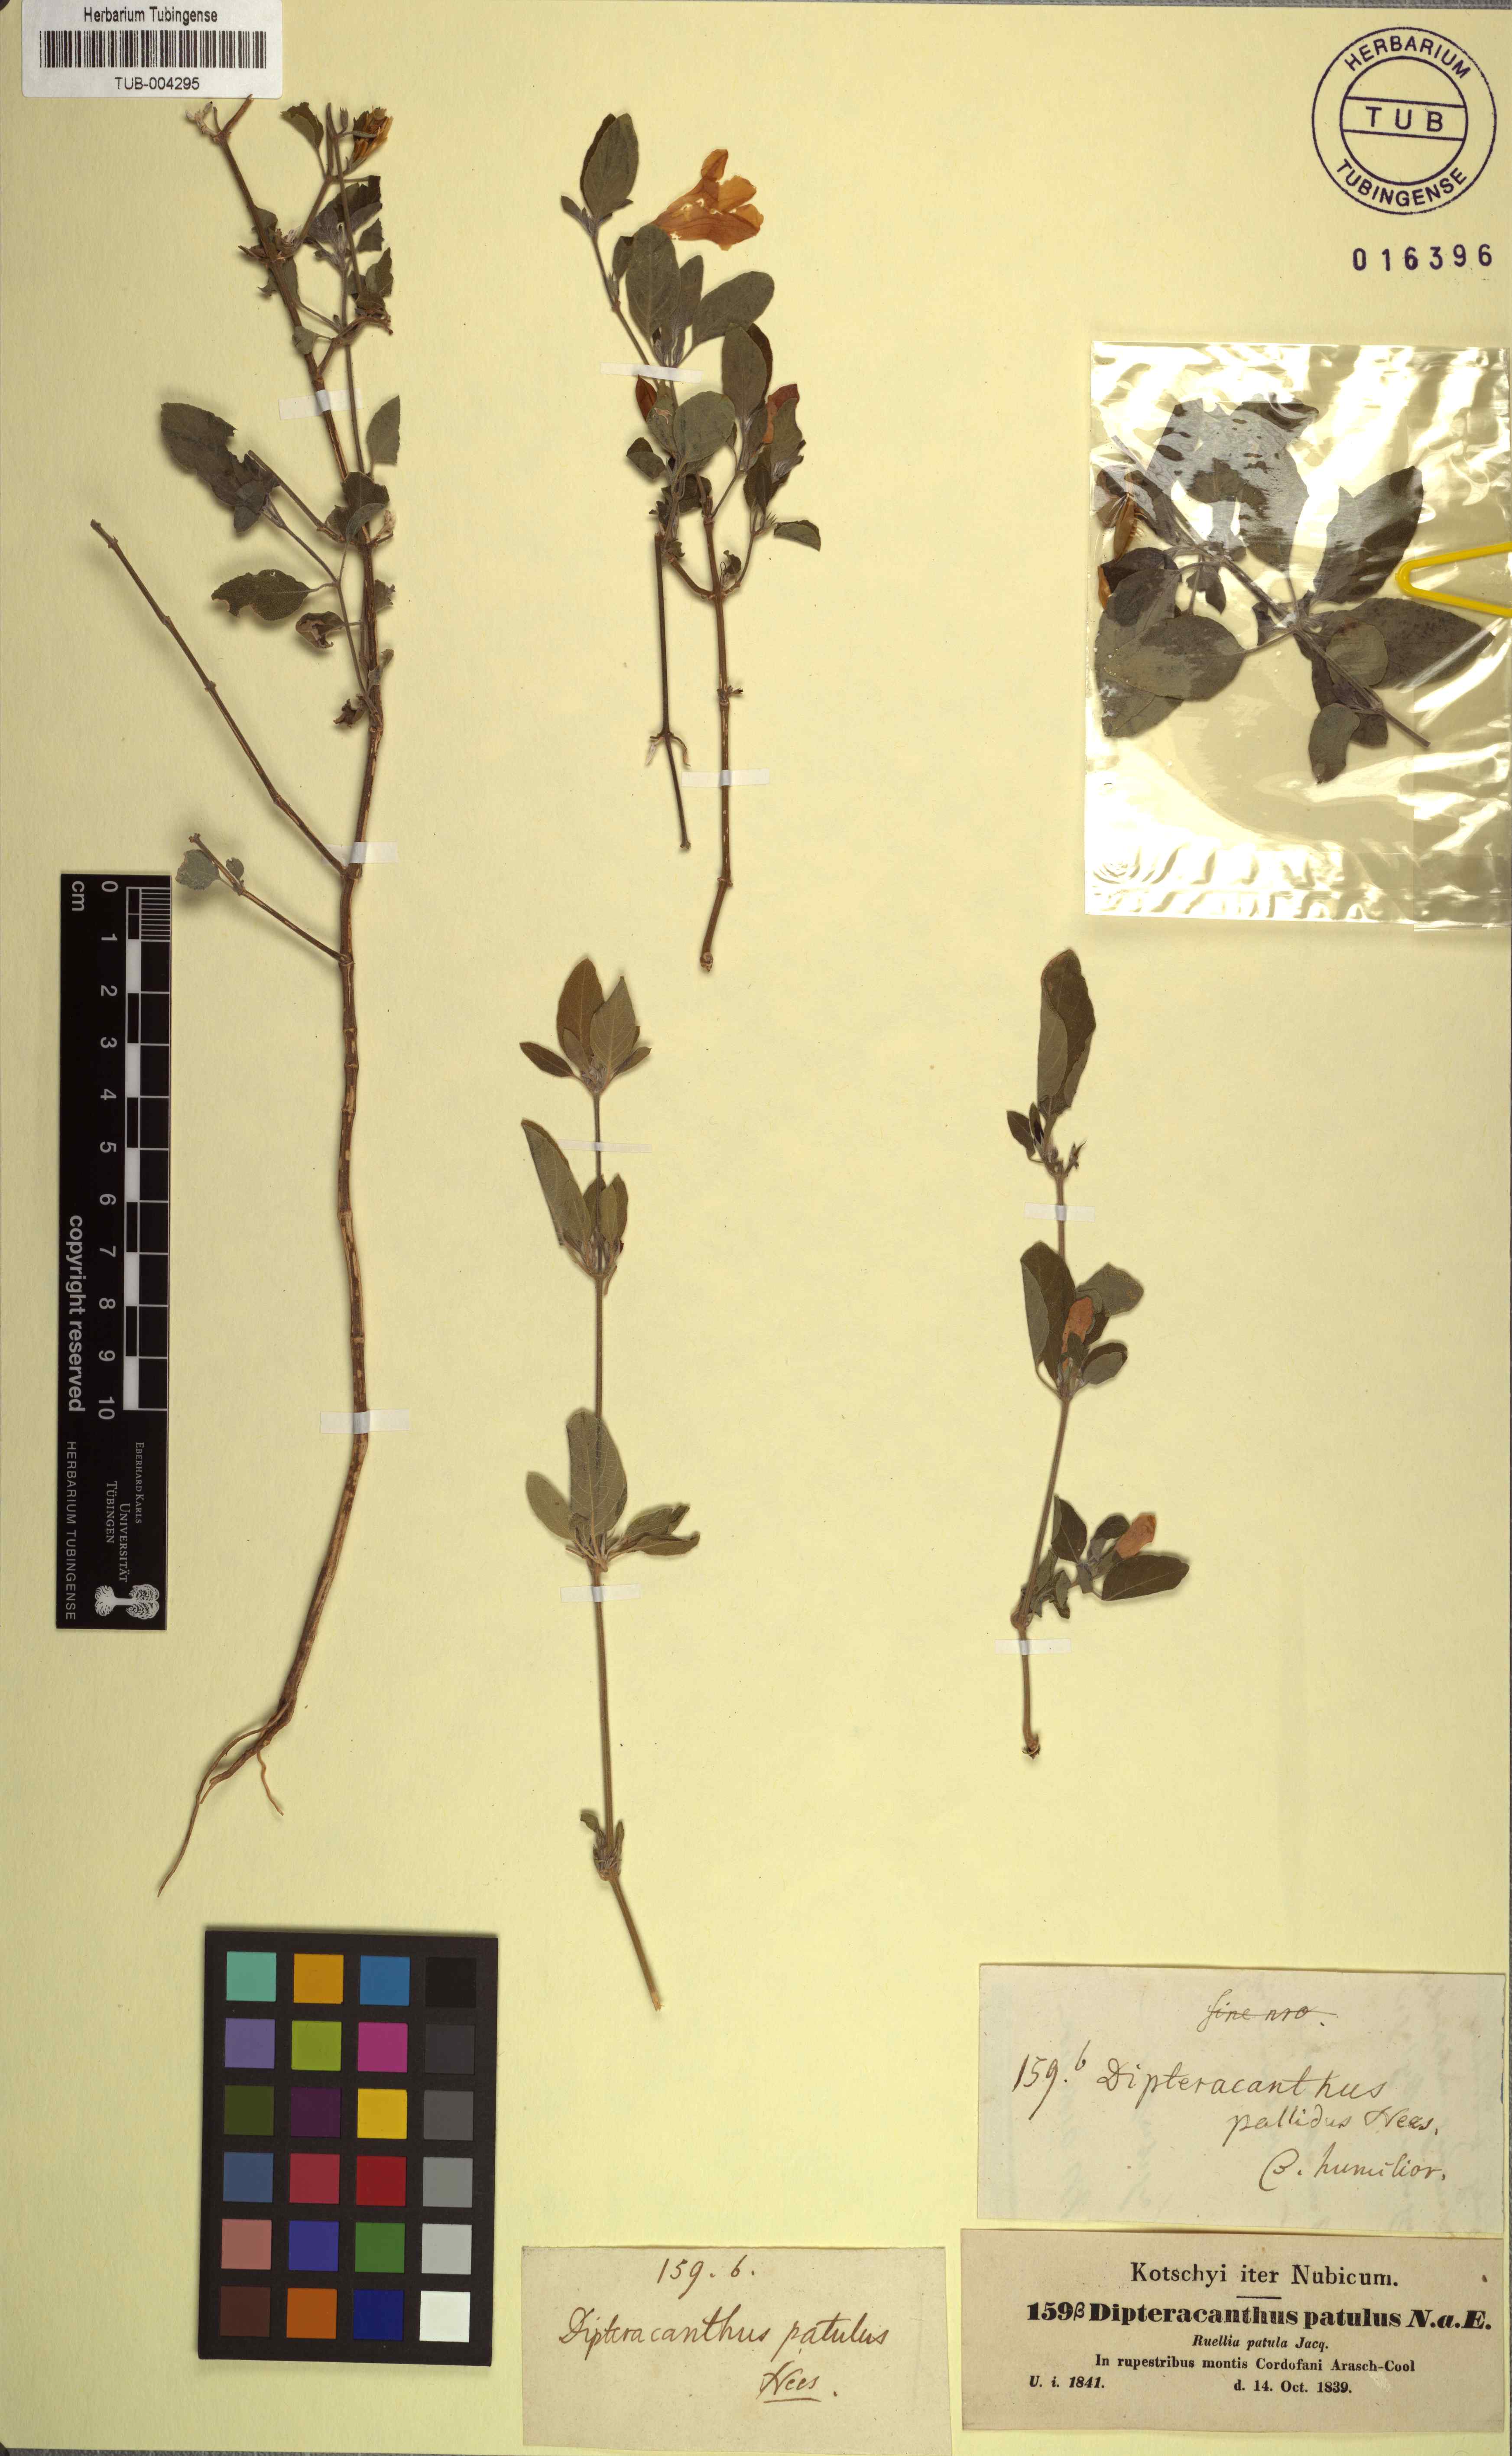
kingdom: Plantae
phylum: Tracheophyta
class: Magnoliopsida
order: Lamiales
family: Acanthaceae
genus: Ruellia
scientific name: Ruellia patula
